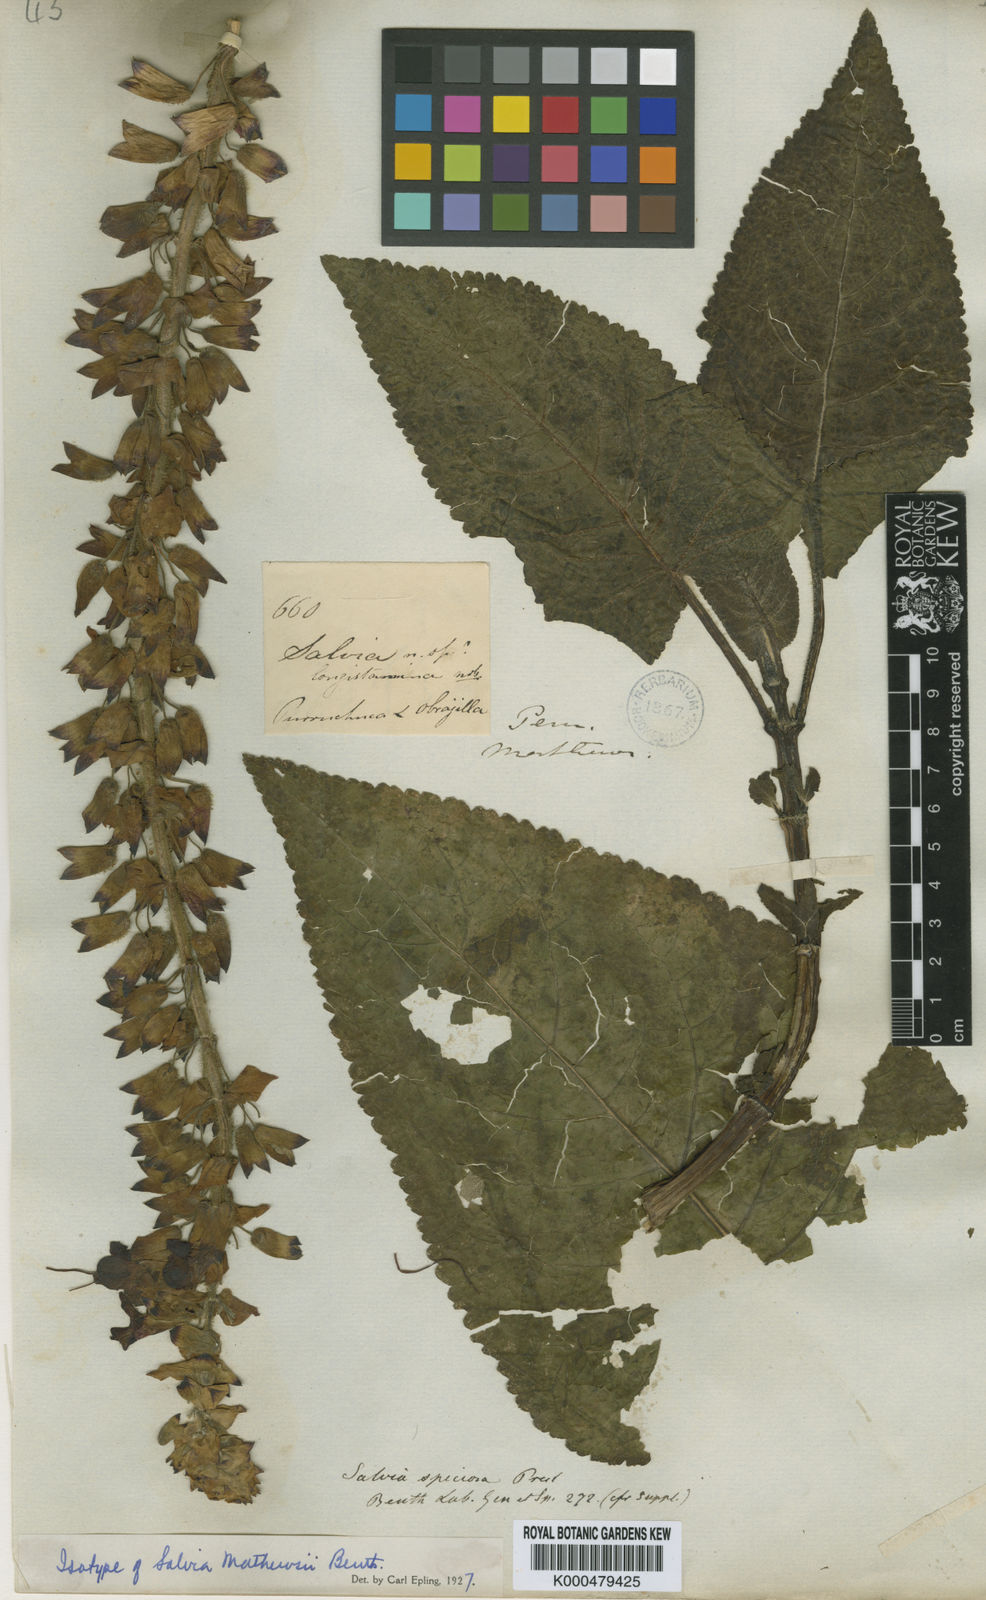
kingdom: Plantae
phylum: Tracheophyta
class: Magnoliopsida
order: Lamiales
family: Lamiaceae
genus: Salvia
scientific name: Salvia speciosa
